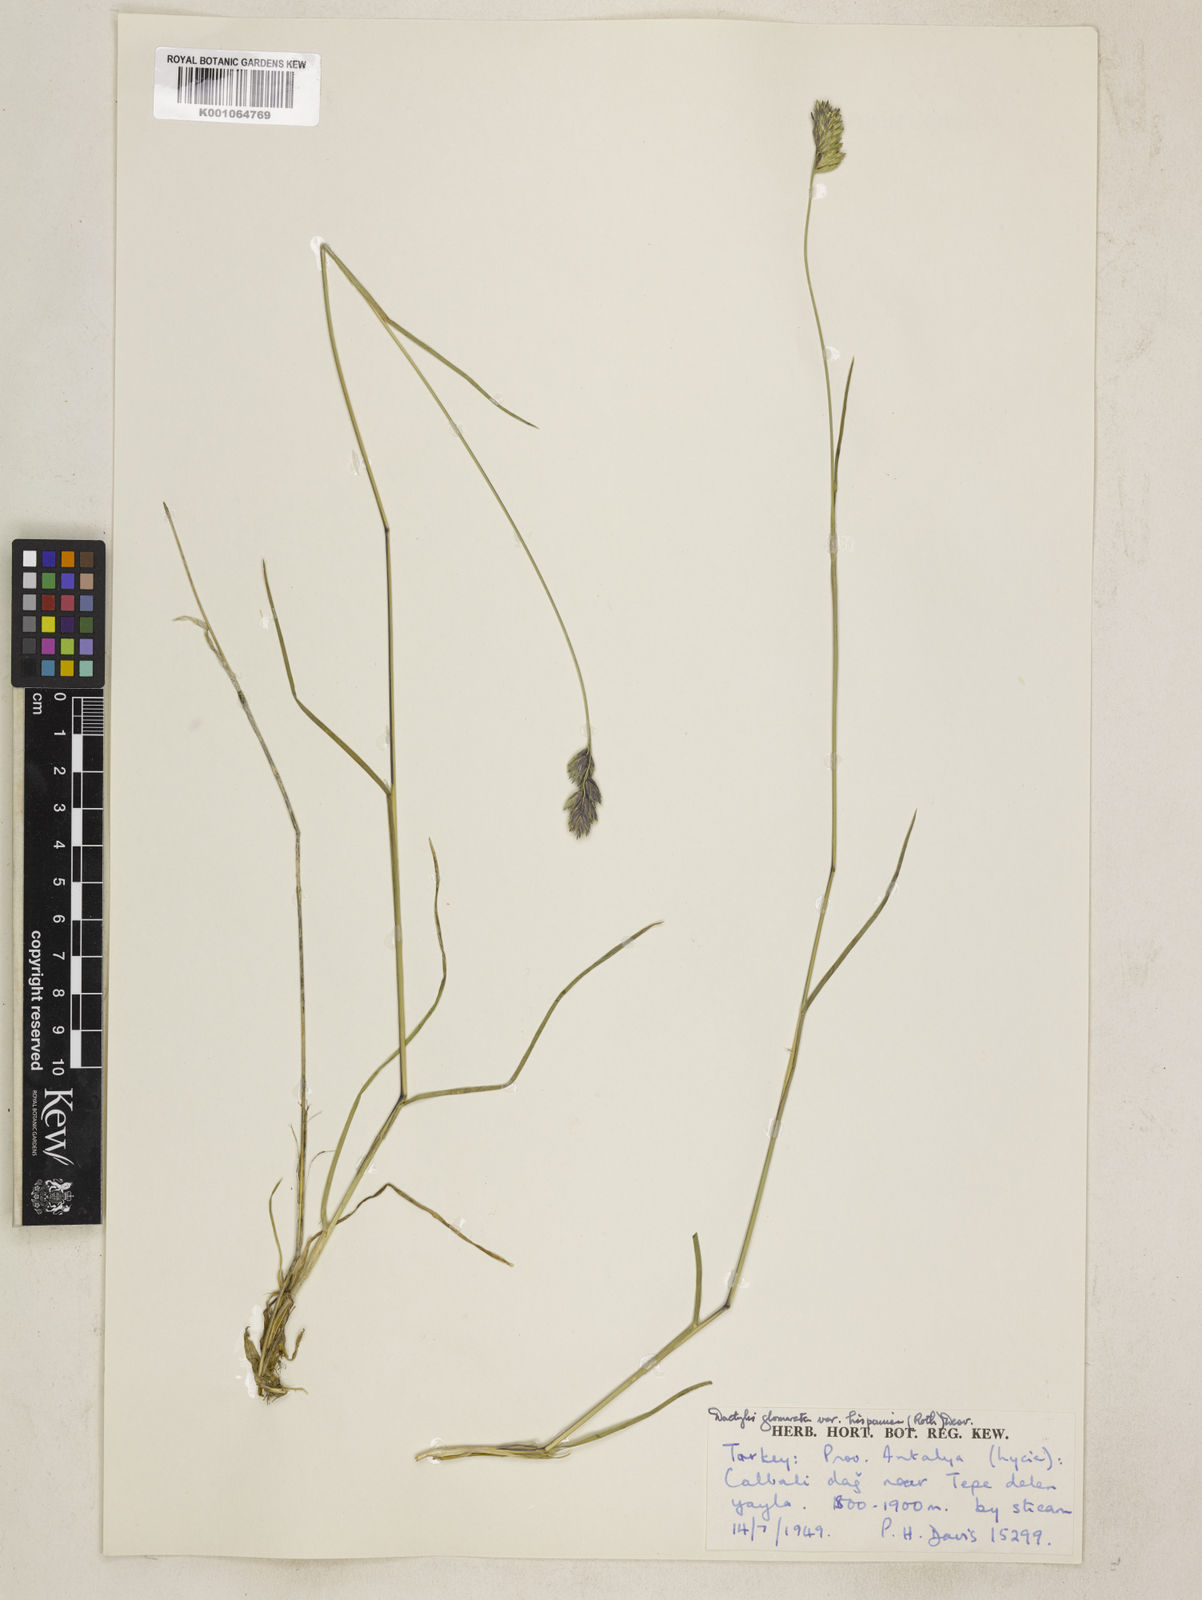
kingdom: Plantae
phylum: Tracheophyta
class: Liliopsida
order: Poales
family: Poaceae
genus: Dactylis
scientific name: Dactylis glomerata
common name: Orchardgrass
